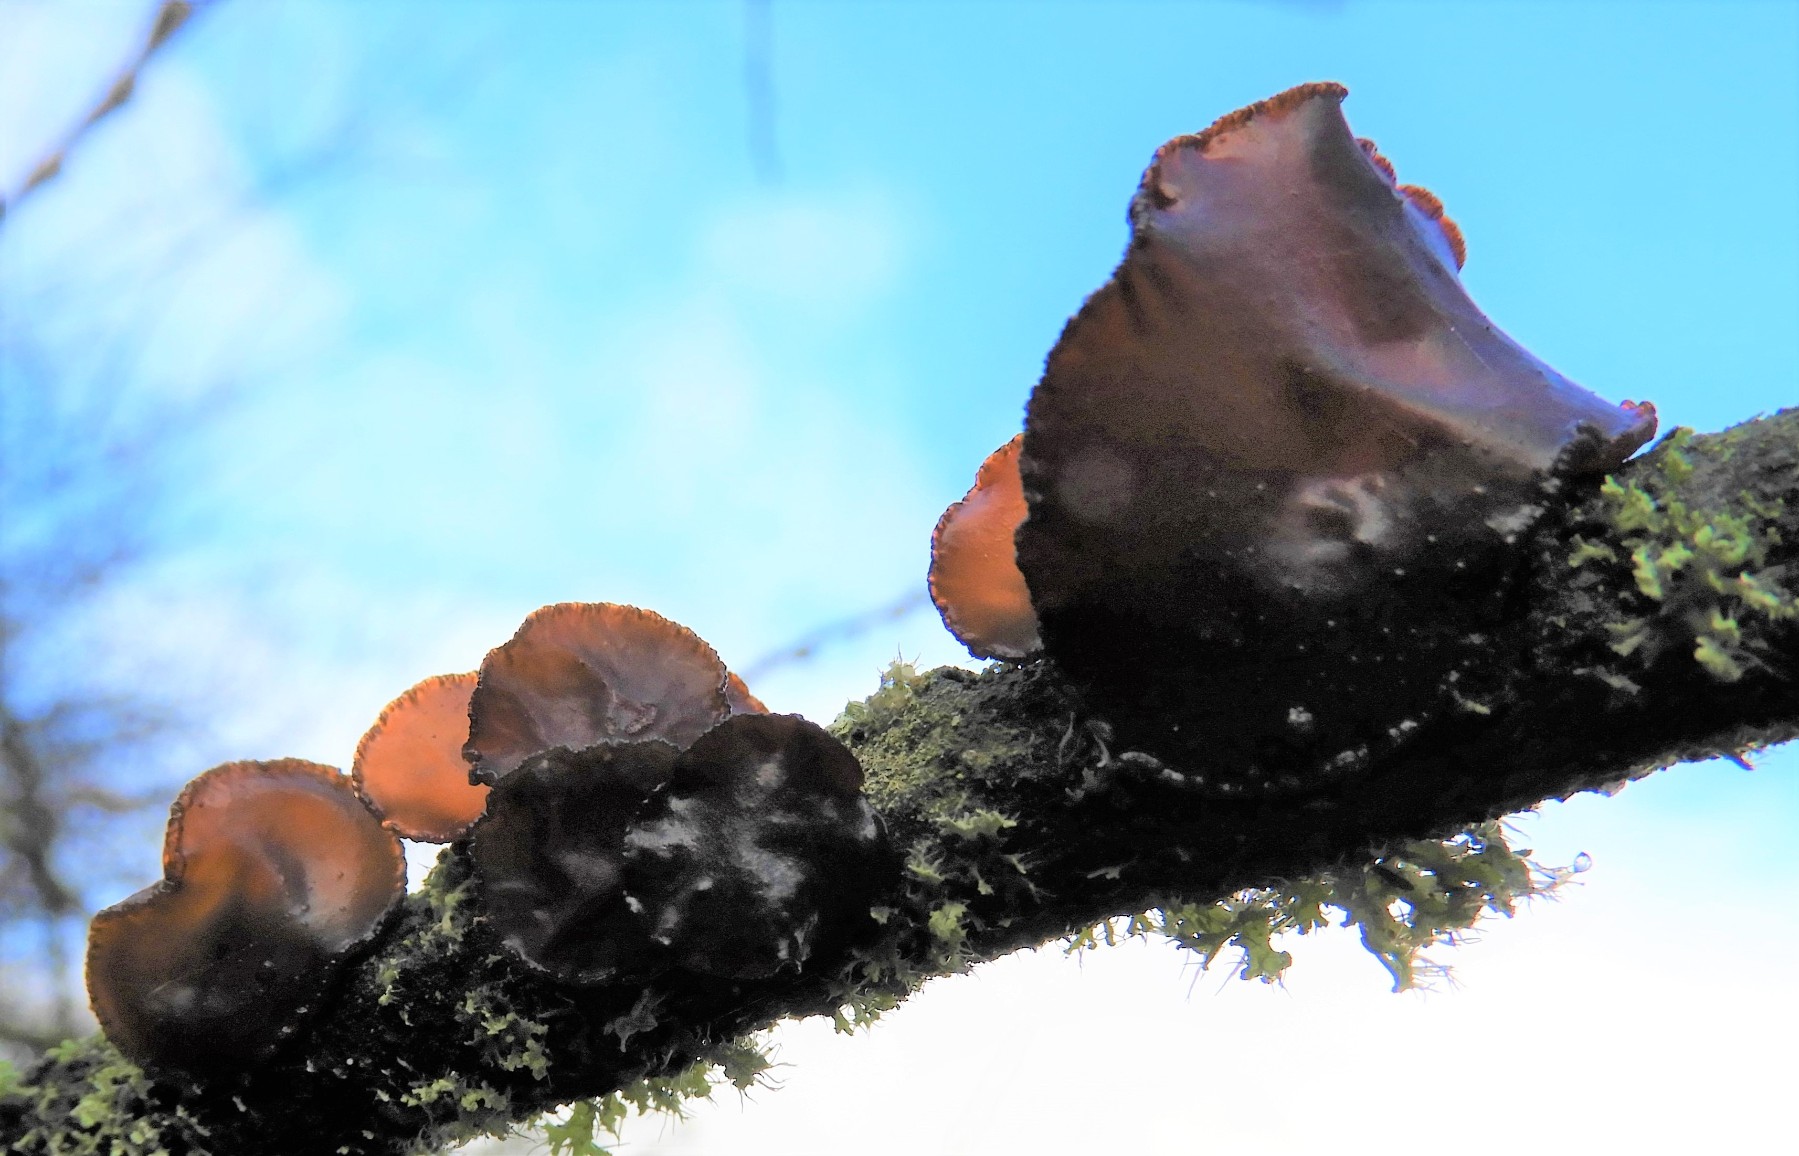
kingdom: Fungi
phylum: Basidiomycota
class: Agaricomycetes
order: Auriculariales
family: Auriculariaceae
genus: Exidia
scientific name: Exidia recisa
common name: pile-bævretop
